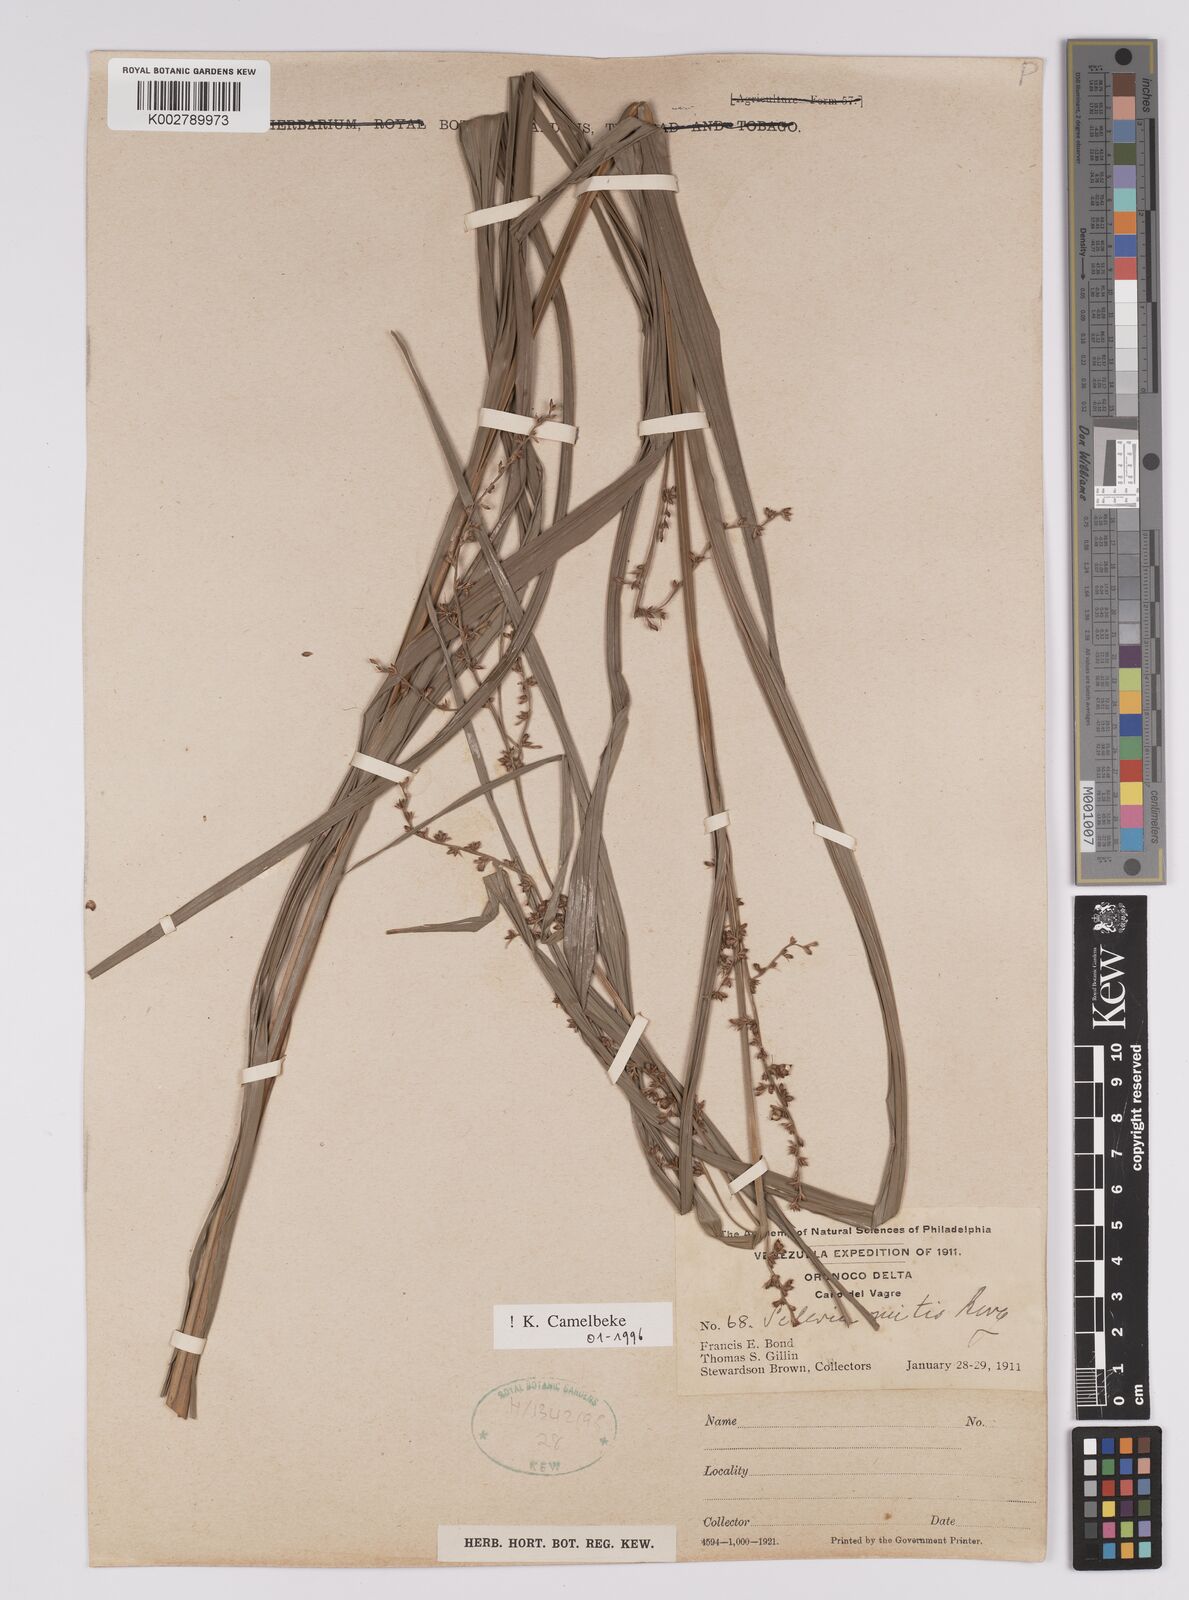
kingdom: Plantae
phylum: Tracheophyta
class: Liliopsida
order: Poales
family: Cyperaceae
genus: Scleria
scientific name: Scleria mitis
